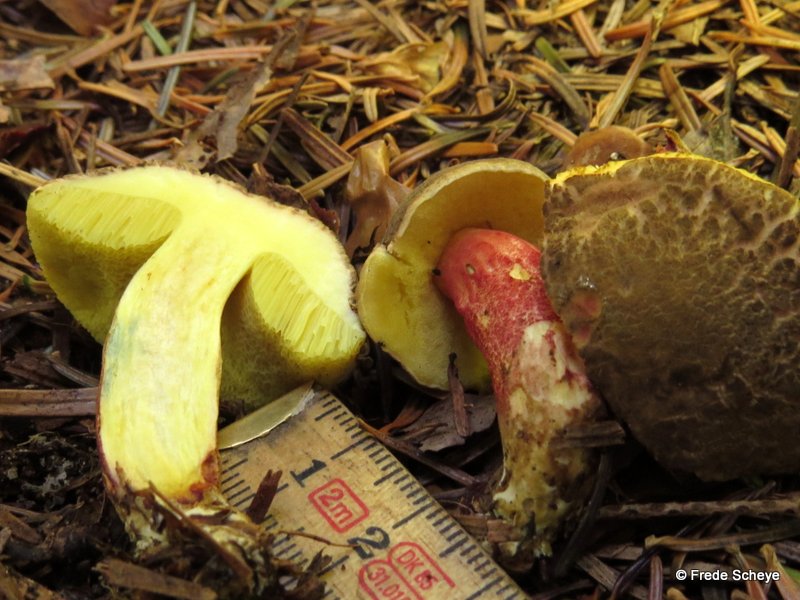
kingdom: Fungi
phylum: Basidiomycota
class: Agaricomycetes
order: Boletales
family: Boletaceae
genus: Xerocomellus
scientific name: Xerocomellus chrysenteron
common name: rødsprukken rørhat
